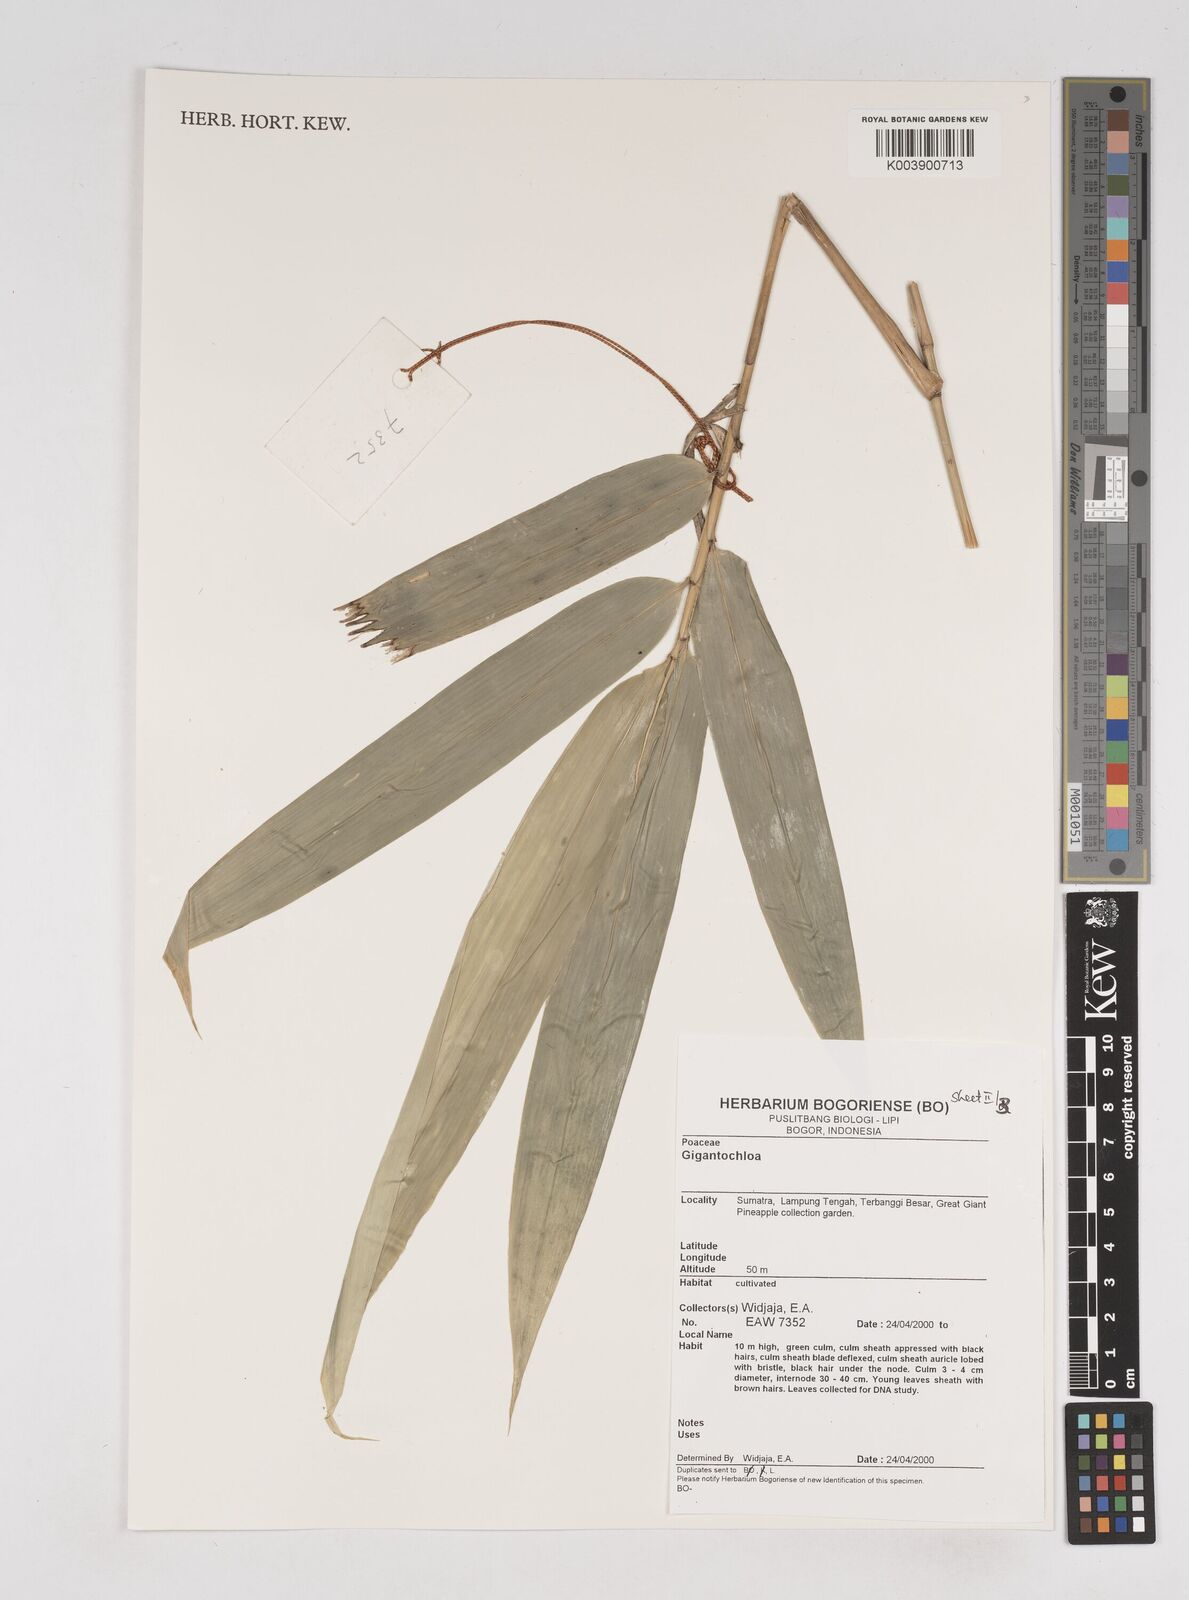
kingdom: Plantae
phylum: Tracheophyta
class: Liliopsida
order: Poales
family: Poaceae
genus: Gigantochloa
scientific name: Gigantochloa
